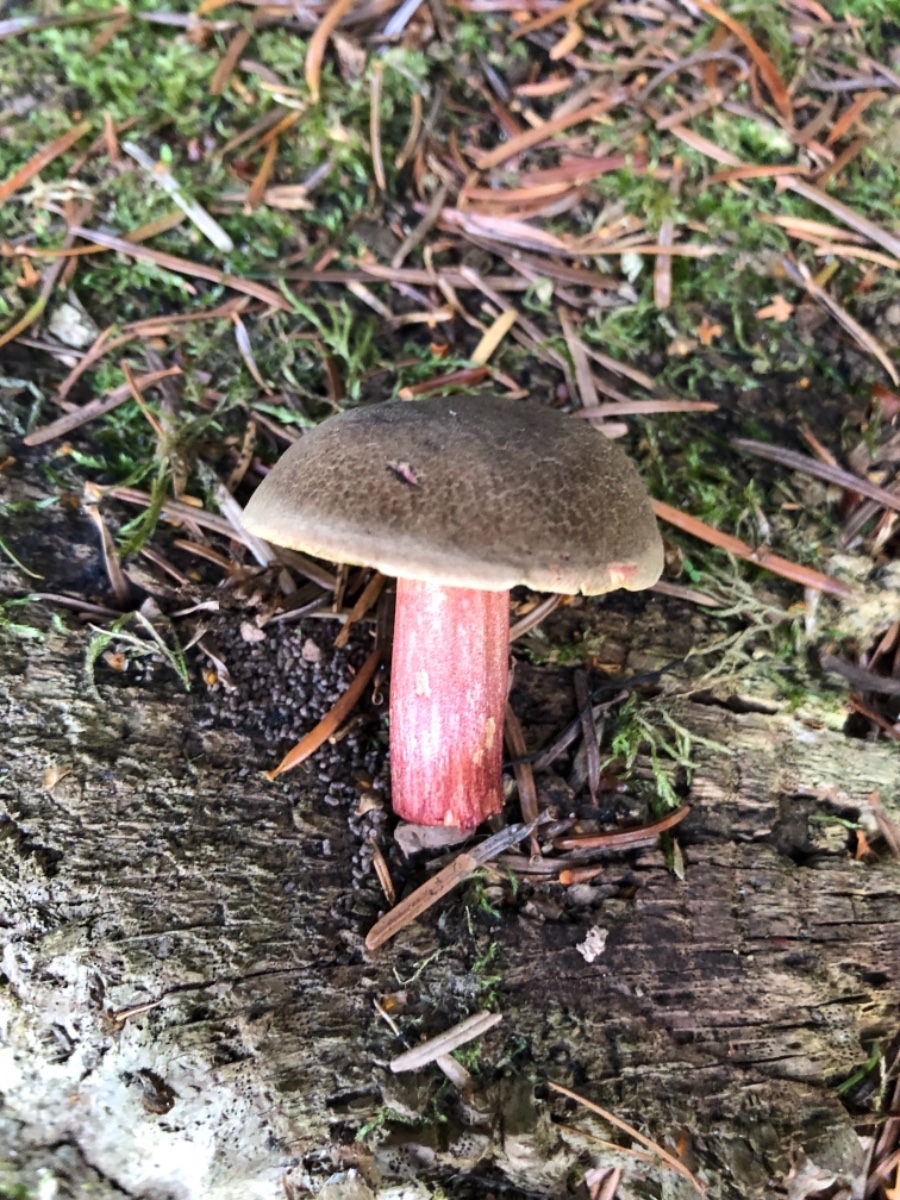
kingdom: Fungi
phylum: Basidiomycota
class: Agaricomycetes
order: Boletales
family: Boletaceae
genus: Xerocomellus
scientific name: Xerocomellus
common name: dværgrørhat
